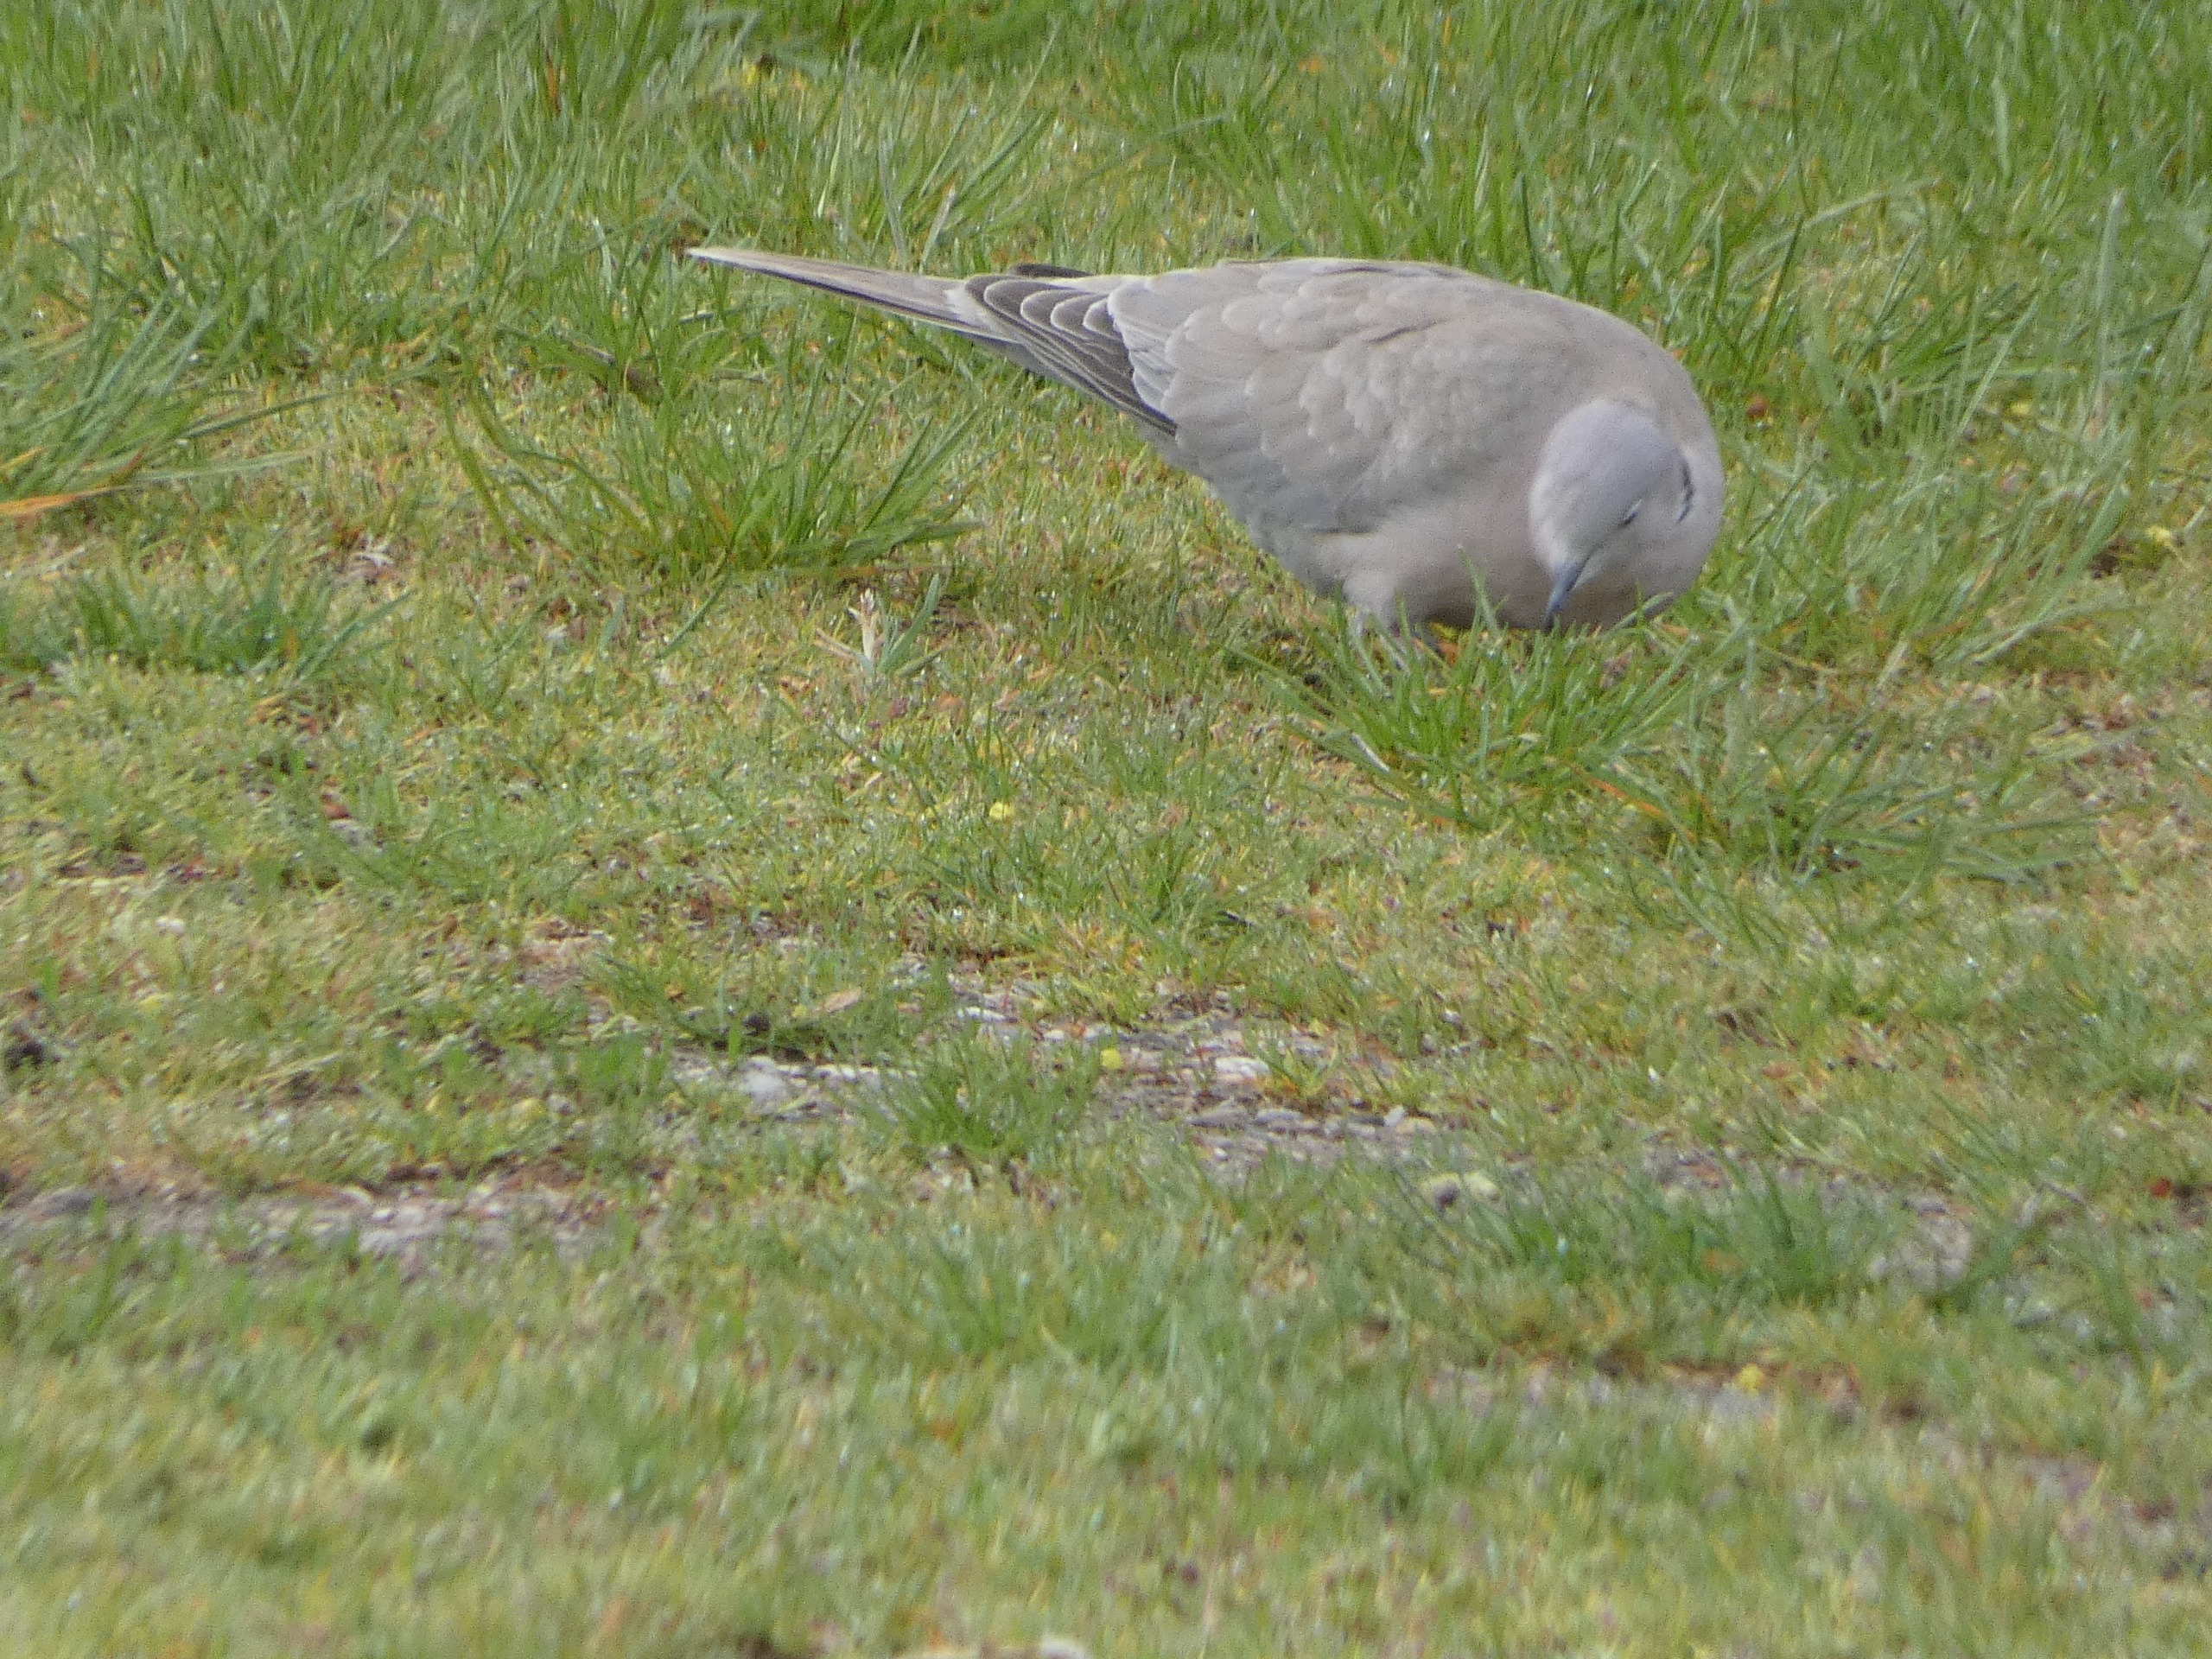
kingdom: Animalia
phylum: Chordata
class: Aves
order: Columbiformes
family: Columbidae
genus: Streptopelia
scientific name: Streptopelia decaocto
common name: Tyrkerdue
